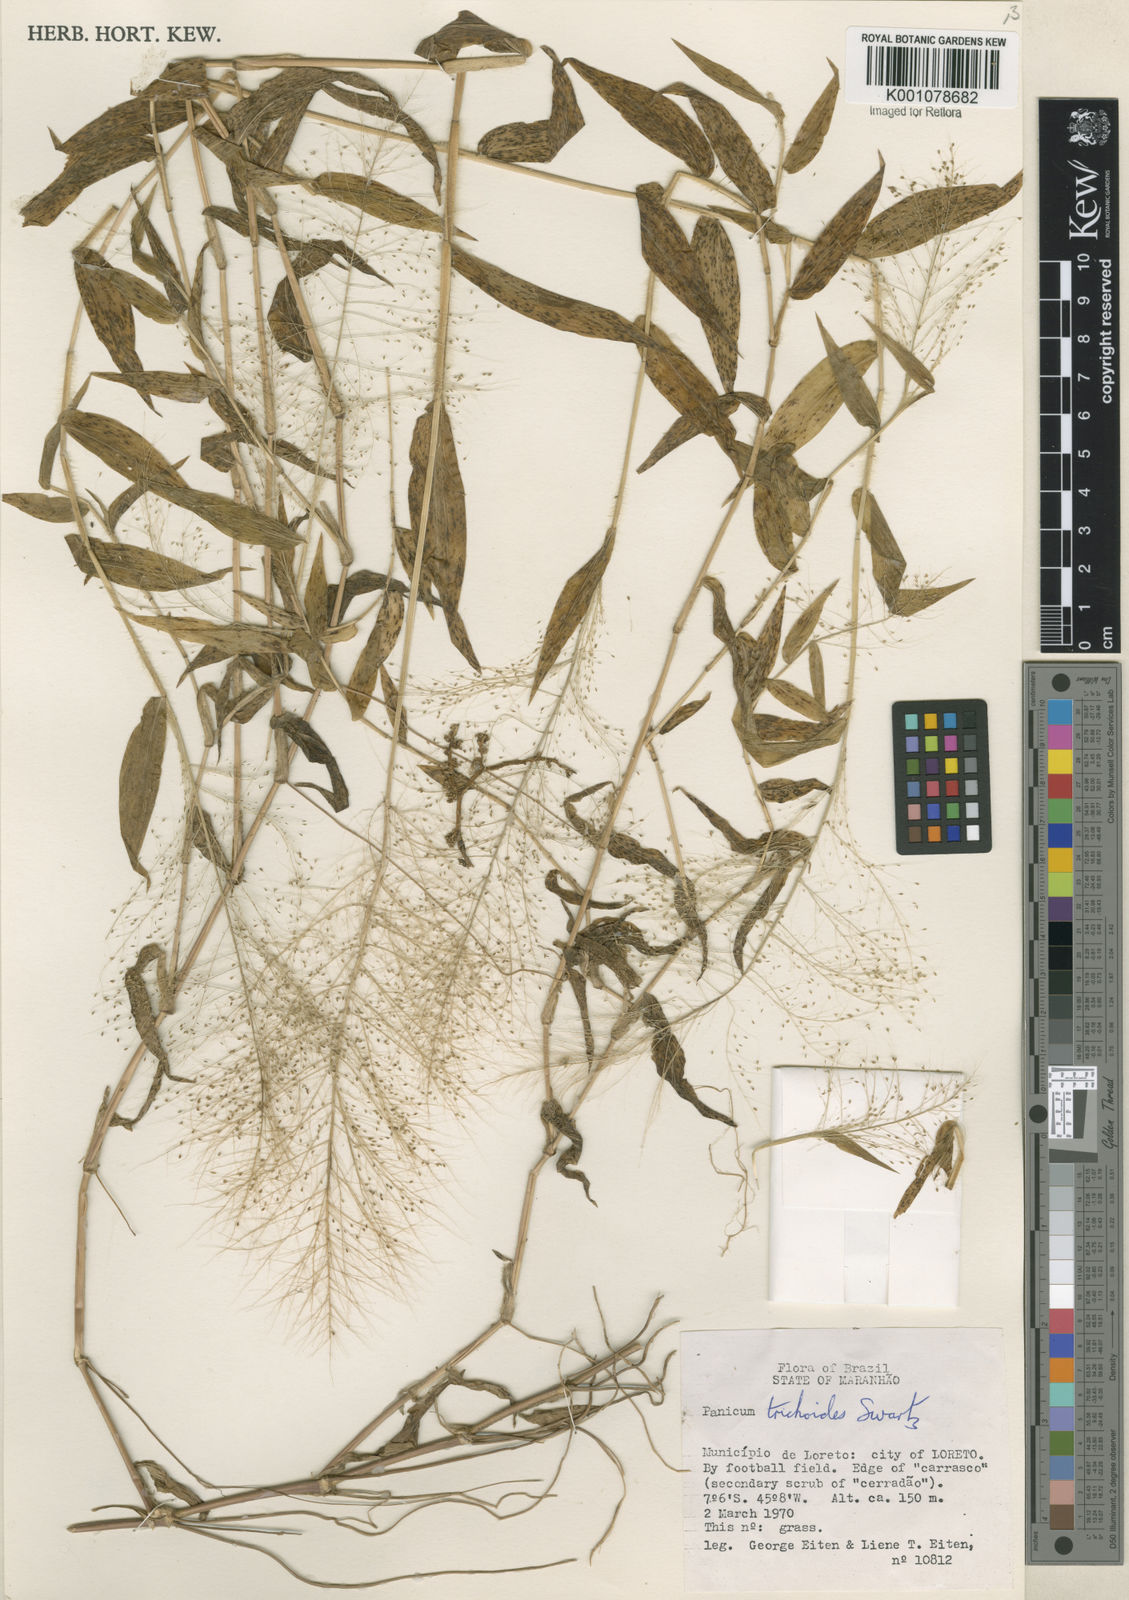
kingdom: Plantae
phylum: Tracheophyta
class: Liliopsida
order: Poales
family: Poaceae
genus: Panicum
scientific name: Panicum trichoides
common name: Tickle grass
